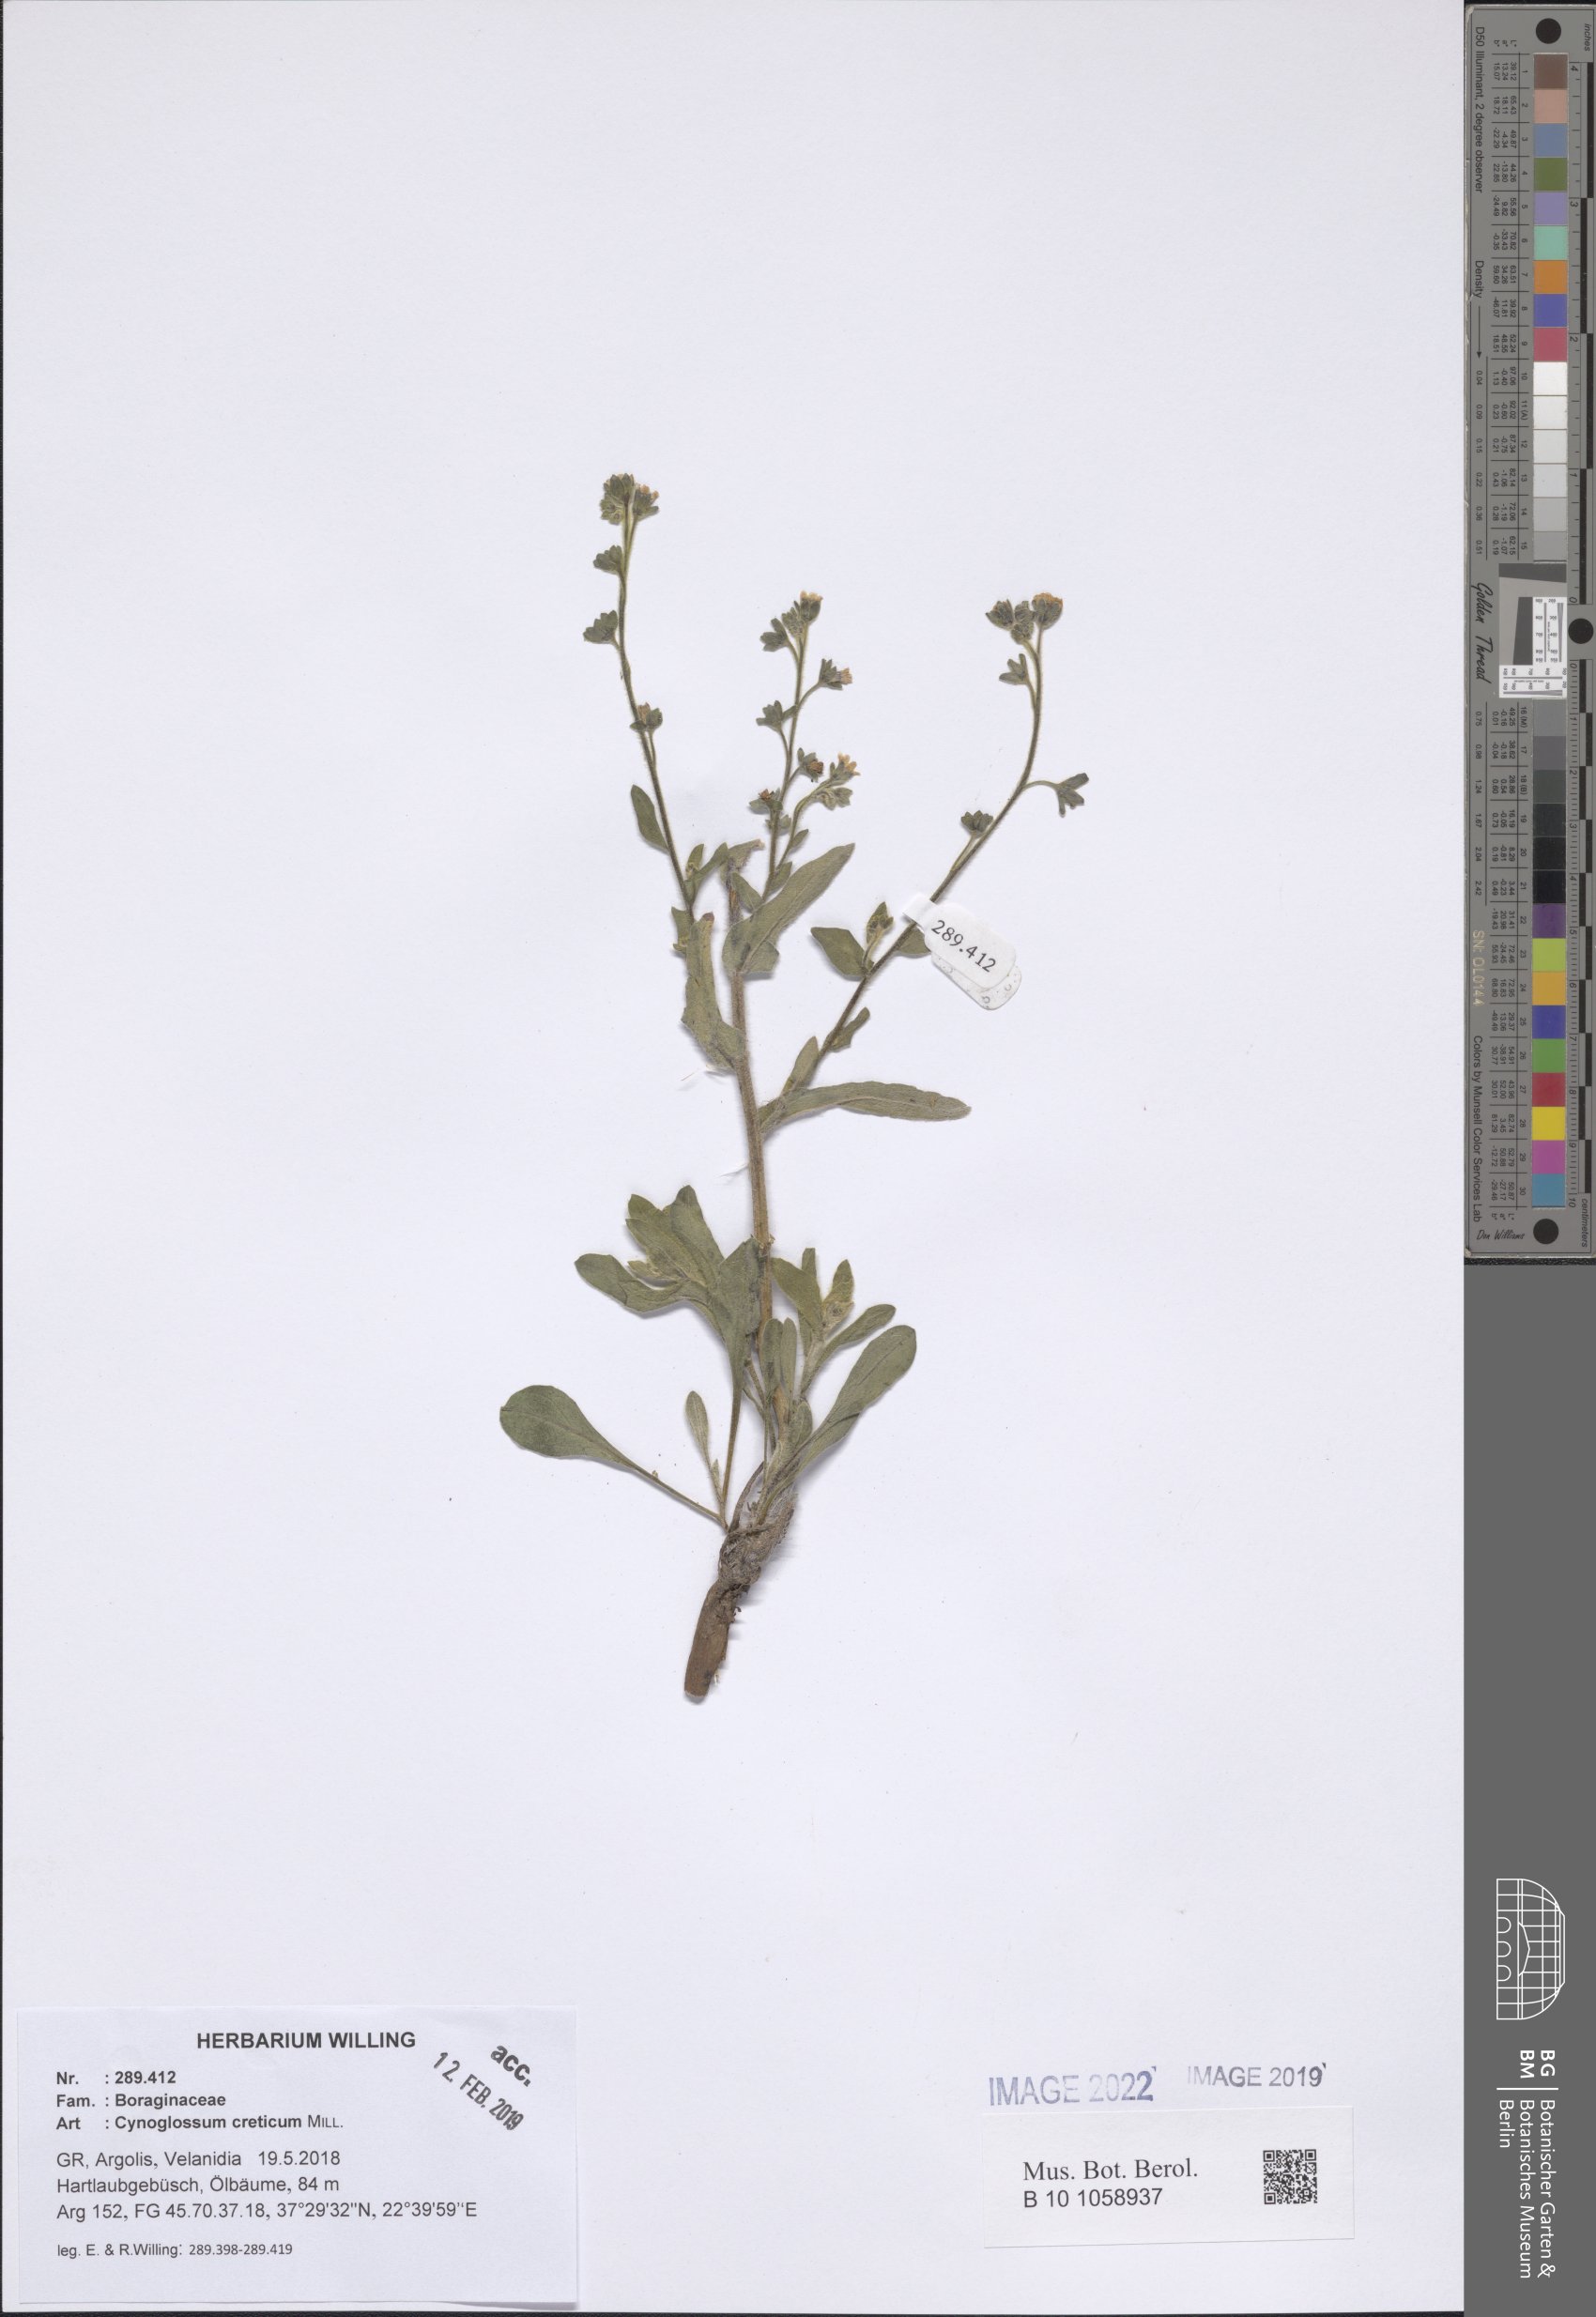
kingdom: Plantae
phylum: Tracheophyta
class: Magnoliopsida
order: Boraginales
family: Boraginaceae
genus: Cynoglossum
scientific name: Cynoglossum creticum
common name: Blue hound's tongue
